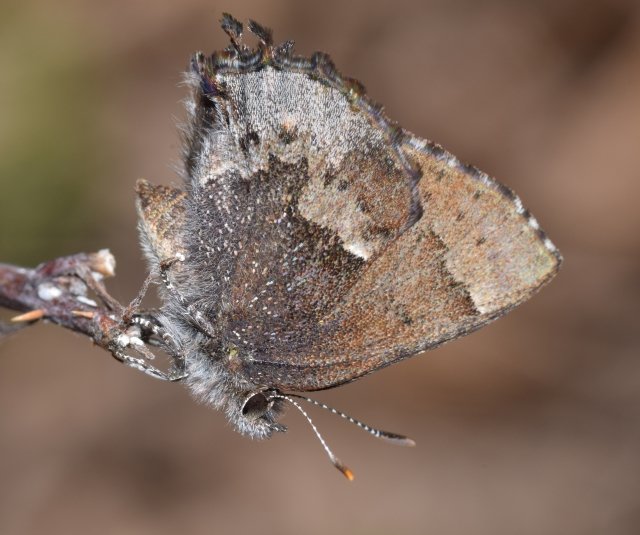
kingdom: Animalia
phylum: Arthropoda
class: Insecta
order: Lepidoptera
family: Lycaenidae
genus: Incisalia
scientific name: Incisalia henrici
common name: Henry's Elfin
